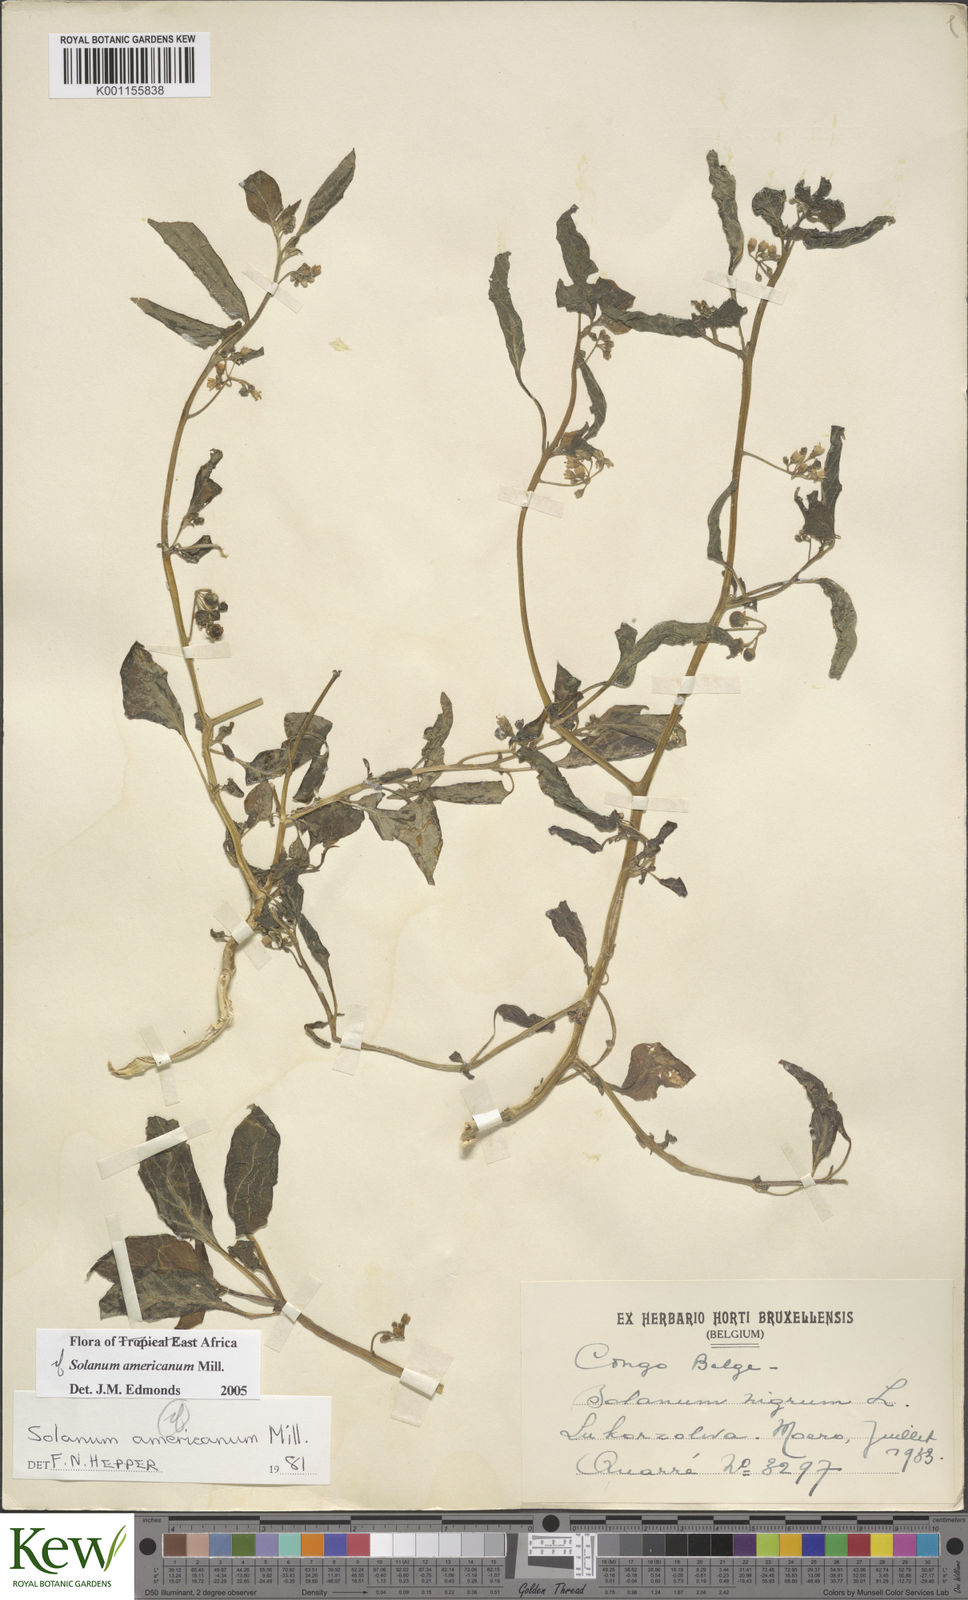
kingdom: Plantae
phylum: Tracheophyta
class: Magnoliopsida
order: Solanales
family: Solanaceae
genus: Solanum
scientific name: Solanum scabrum
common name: Garden-huckleberry
